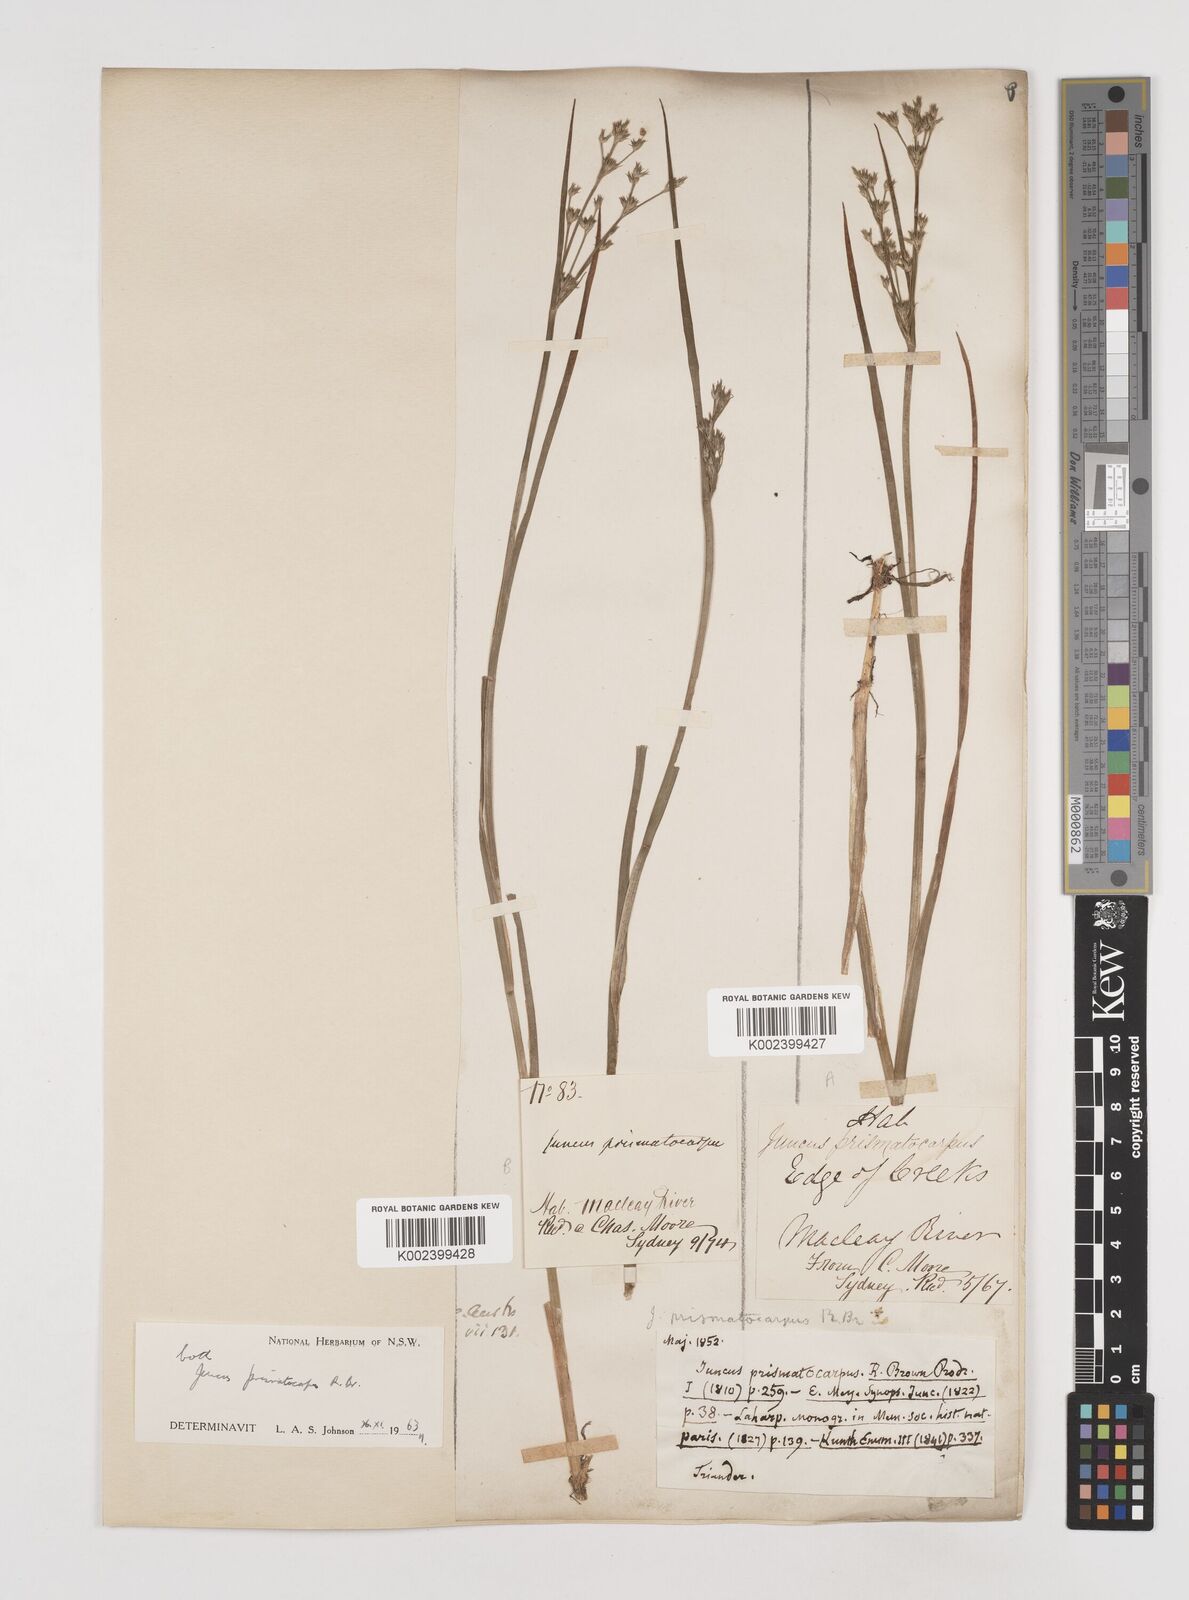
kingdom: Plantae
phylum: Tracheophyta
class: Liliopsida
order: Poales
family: Juncaceae
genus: Juncus
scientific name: Juncus prismatocarpus
